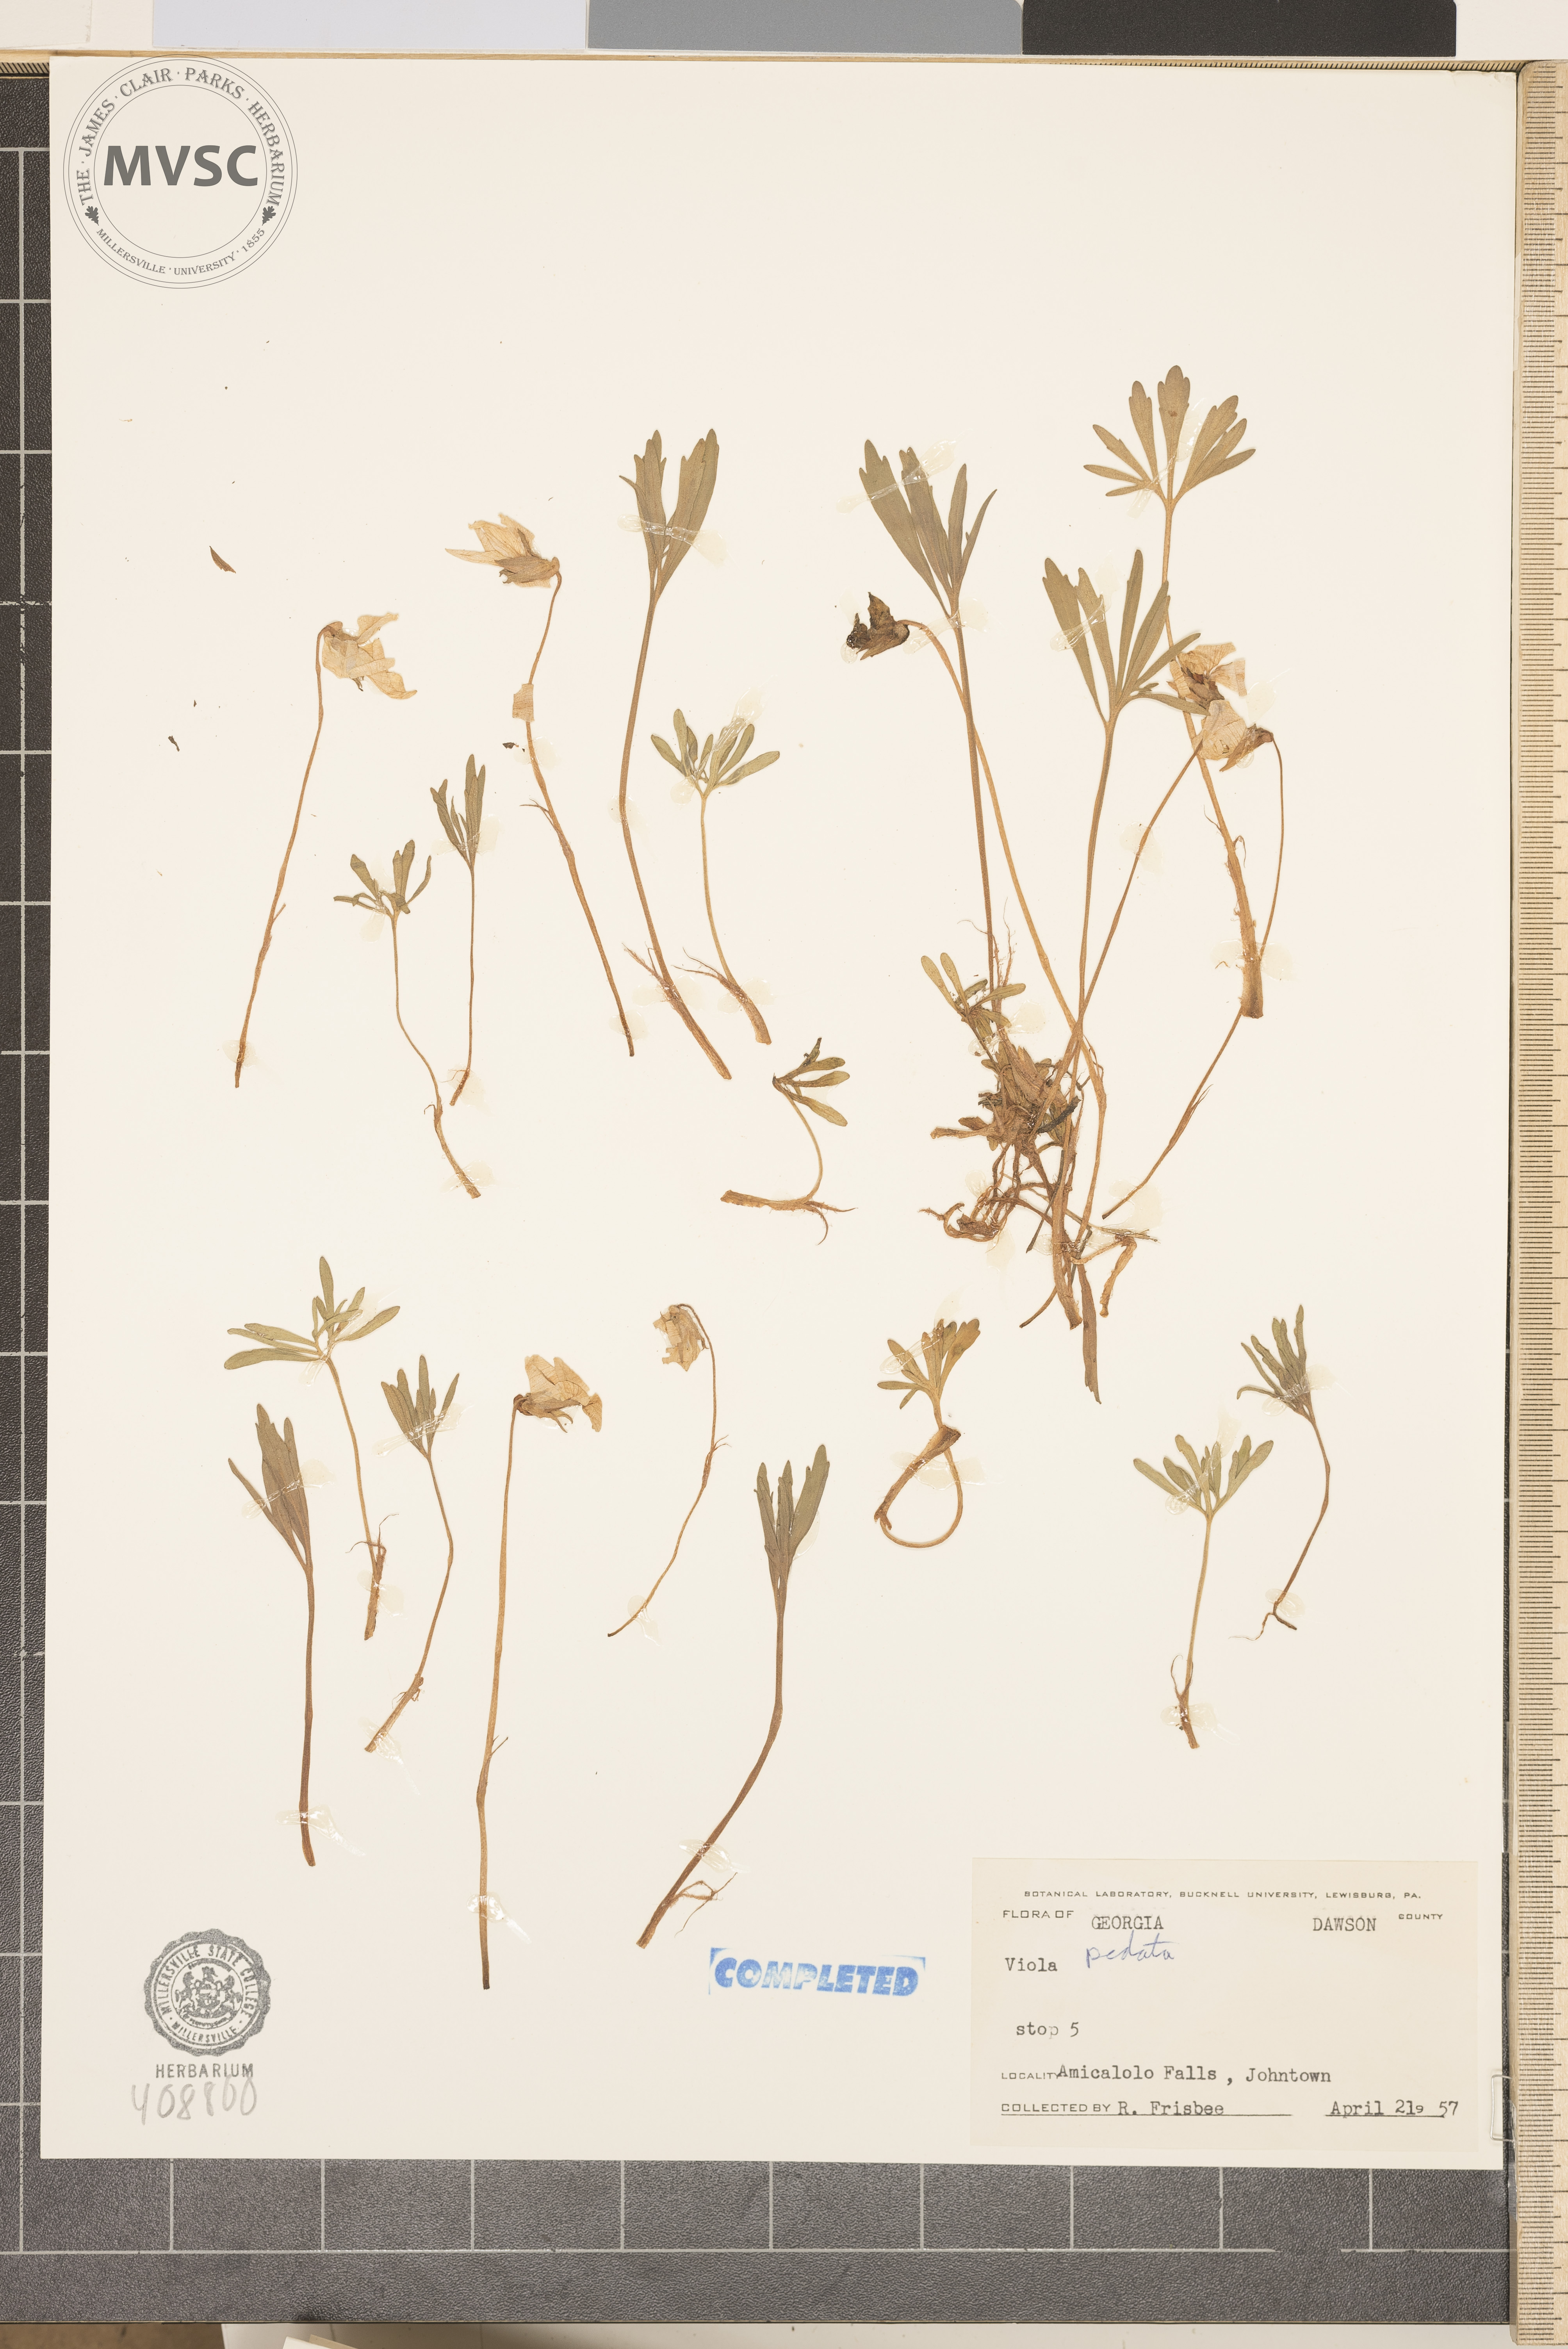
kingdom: Plantae
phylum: Tracheophyta
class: Magnoliopsida
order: Malpighiales
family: Violaceae
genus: Viola
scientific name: Viola pedata
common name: Pansy violet
